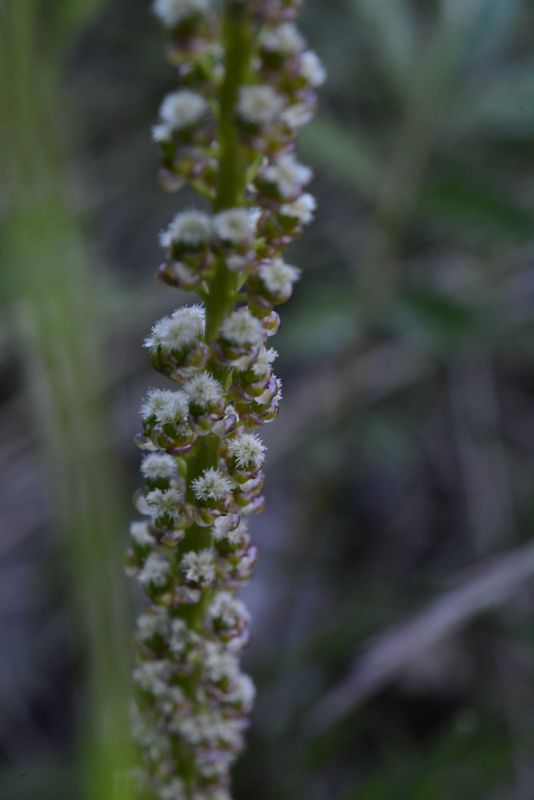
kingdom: Plantae
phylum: Tracheophyta
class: Liliopsida
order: Alismatales
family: Juncaginaceae
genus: Triglochin
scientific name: Triglochin maritima
